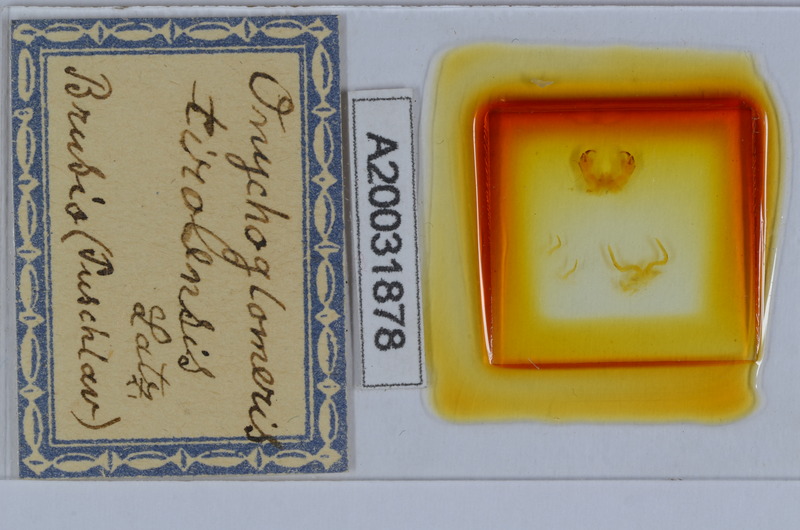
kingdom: Animalia
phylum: Arthropoda
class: Diplopoda
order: Glomerida
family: Glomeridae
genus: Onychoglomeris
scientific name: Onychoglomeris tirolensis
